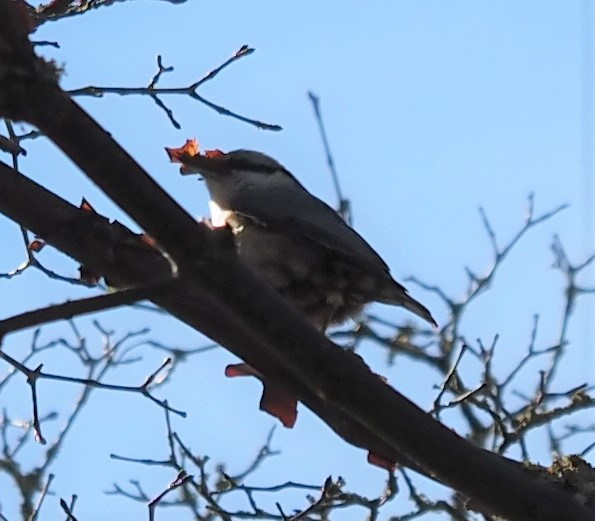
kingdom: Animalia
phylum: Chordata
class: Aves
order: Passeriformes
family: Sittidae
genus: Sitta
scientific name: Sitta europaea
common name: Spætmejse
